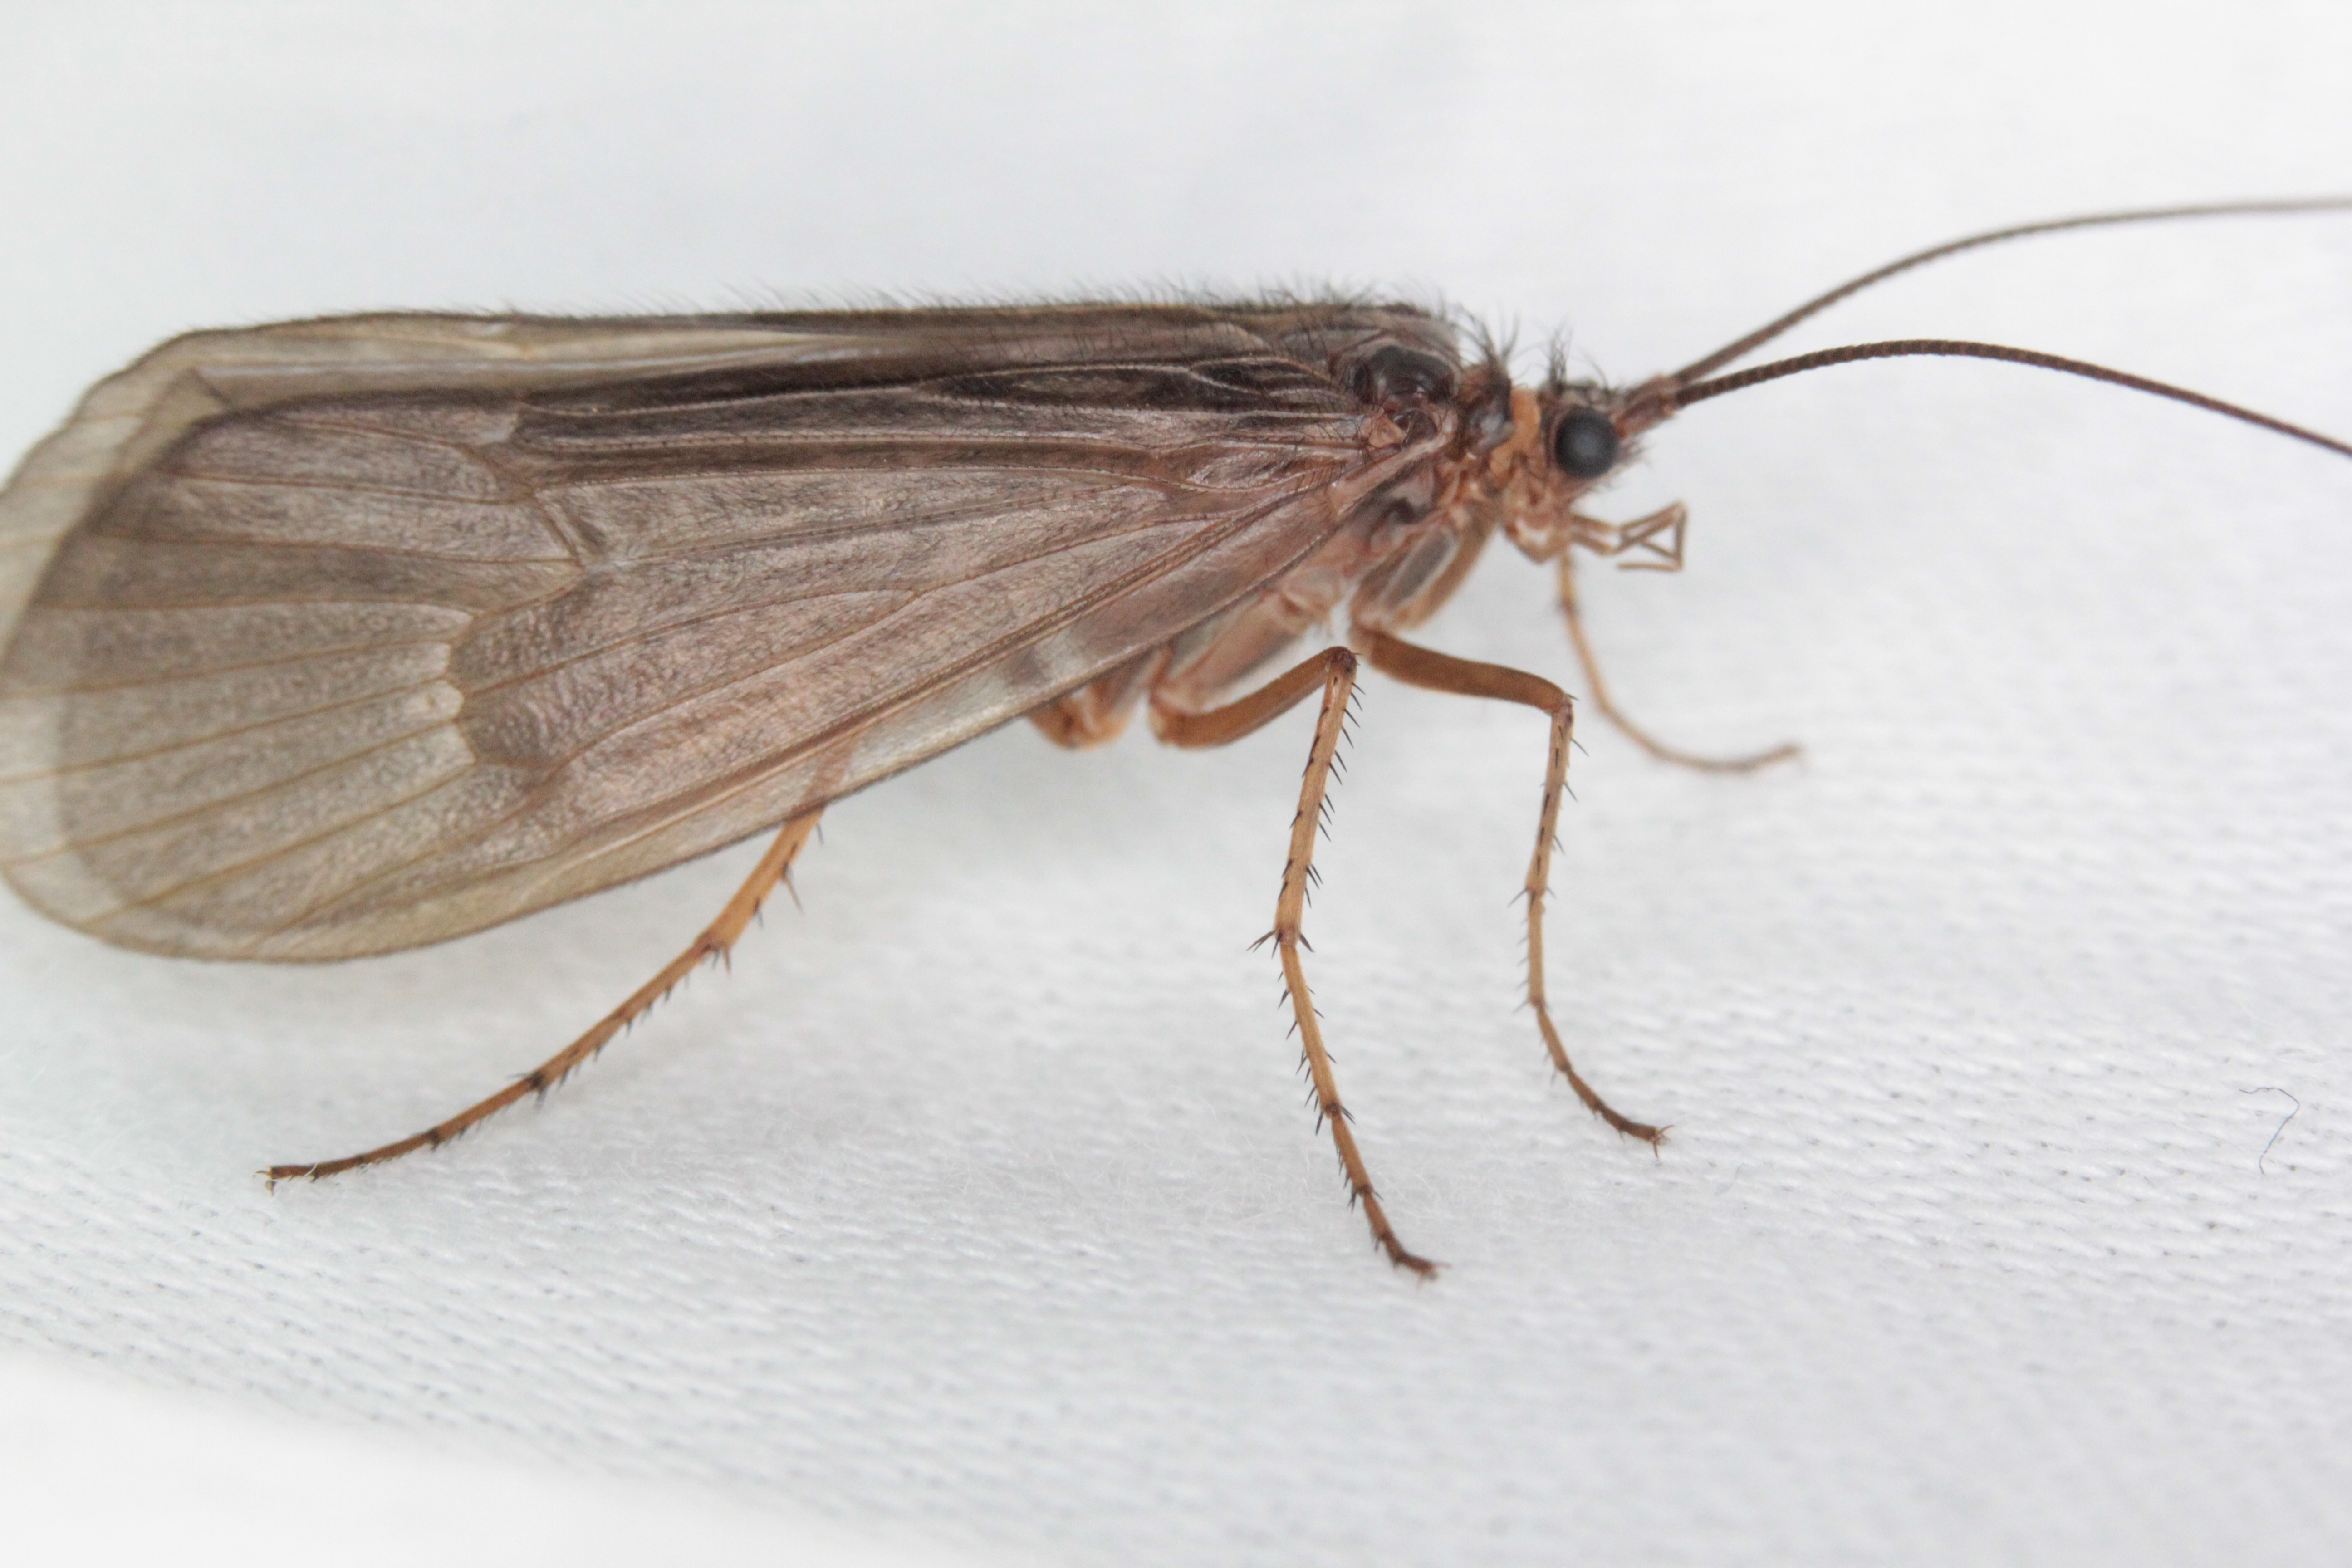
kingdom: Animalia
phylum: Arthropoda
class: Insecta
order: Trichoptera
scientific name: Trichoptera
